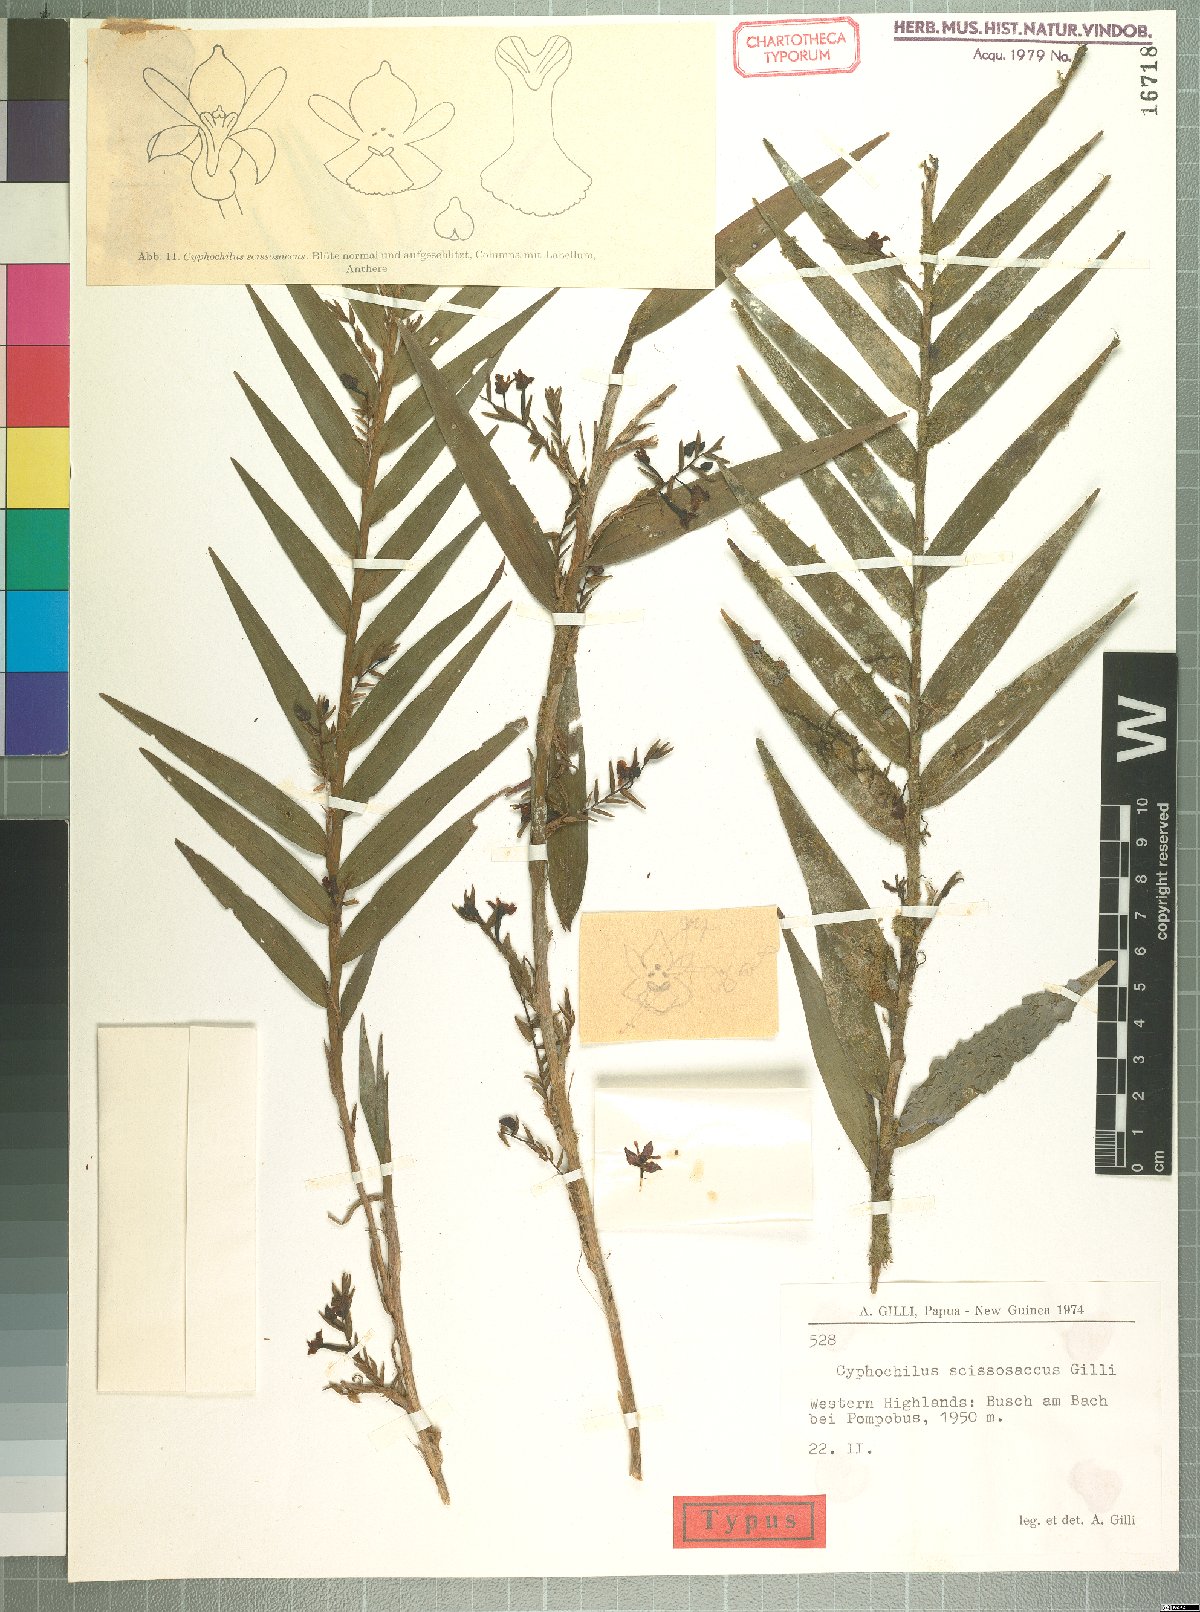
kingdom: Plantae
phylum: Tracheophyta
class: Liliopsida
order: Asparagales
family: Orchidaceae
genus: Appendicula
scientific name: Appendicula scissosaccus
